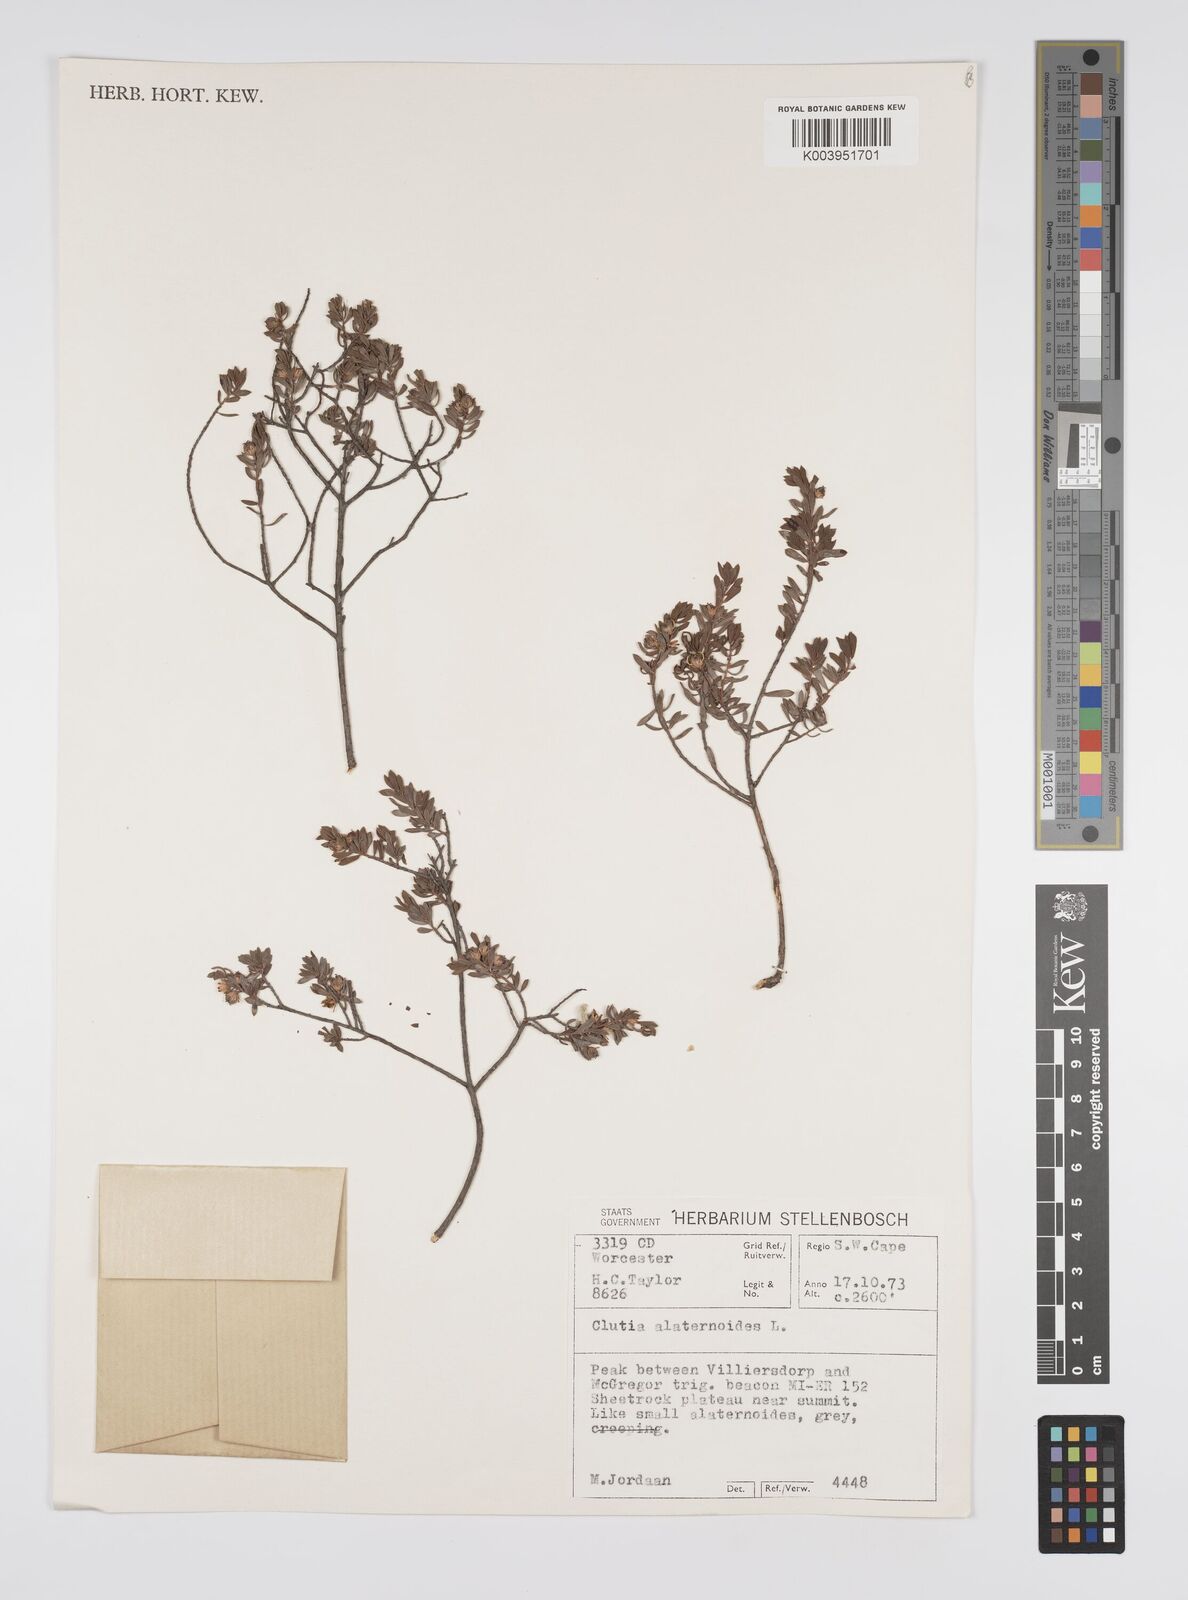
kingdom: Plantae
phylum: Tracheophyta
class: Magnoliopsida
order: Malpighiales
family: Peraceae
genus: Clutia
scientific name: Clutia alaternoides
